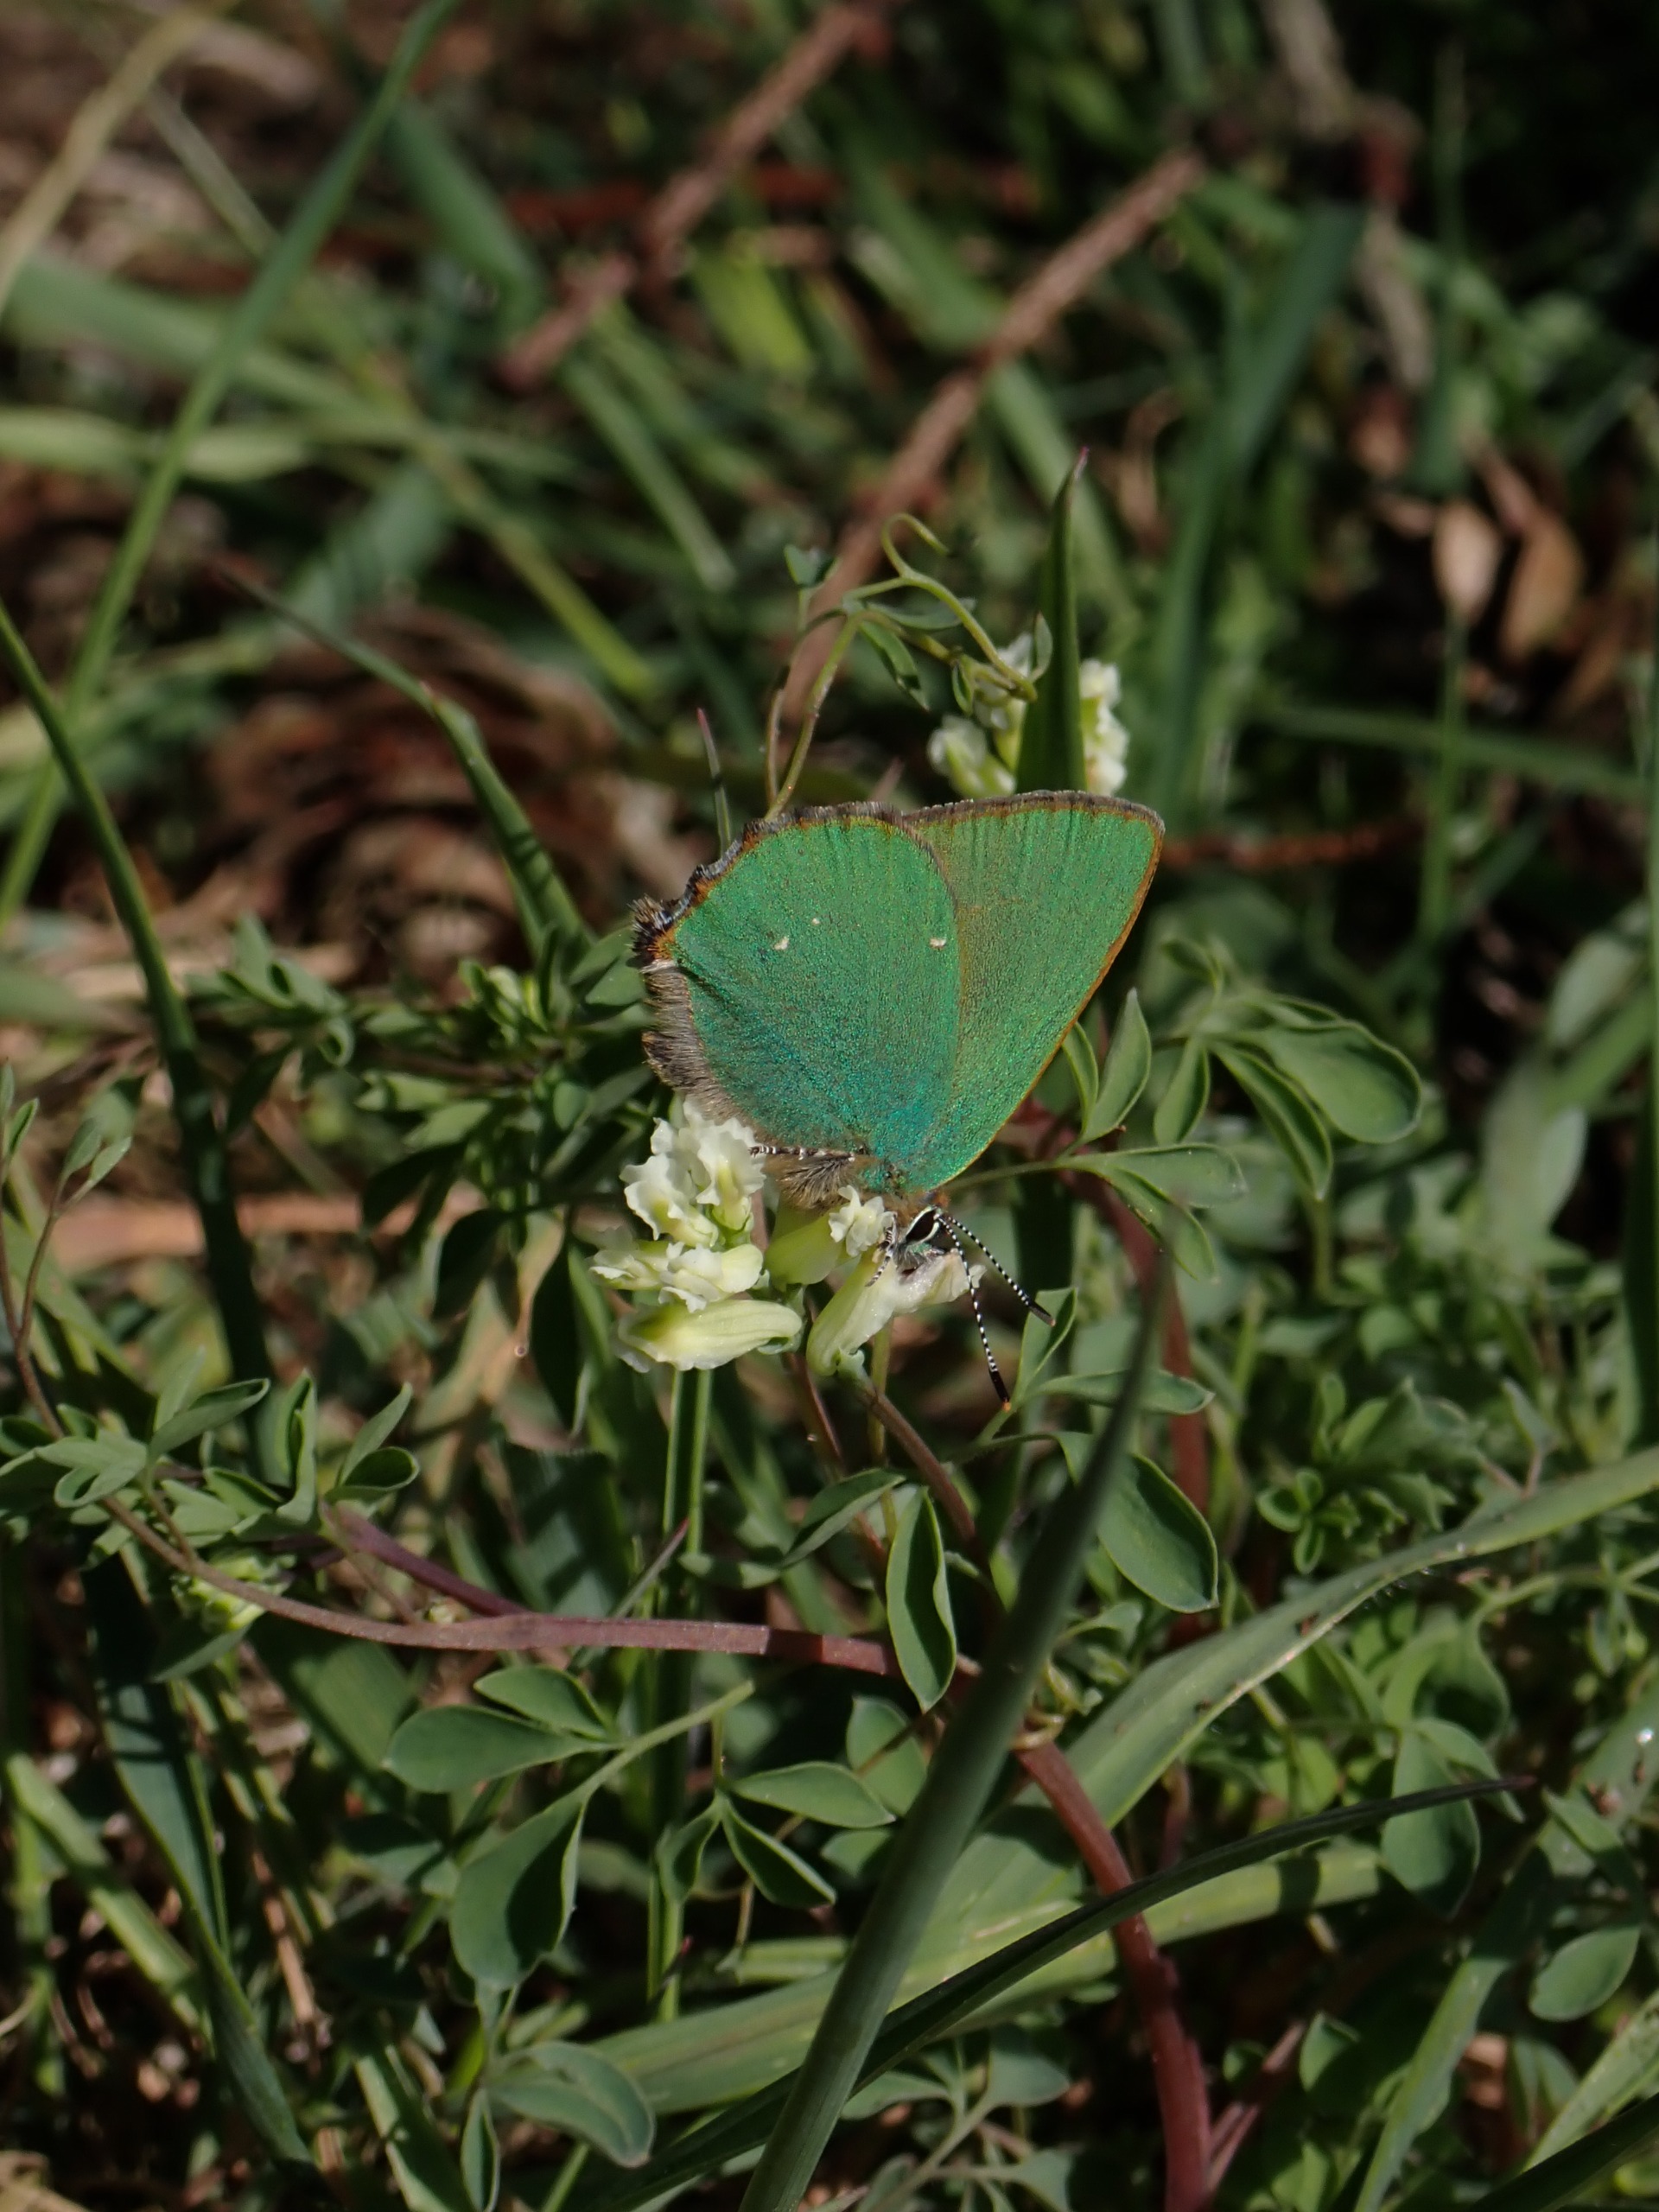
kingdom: Animalia
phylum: Arthropoda
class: Insecta
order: Lepidoptera
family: Lycaenidae
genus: Callophrys
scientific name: Callophrys rubi
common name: Grøn busksommerfugl
